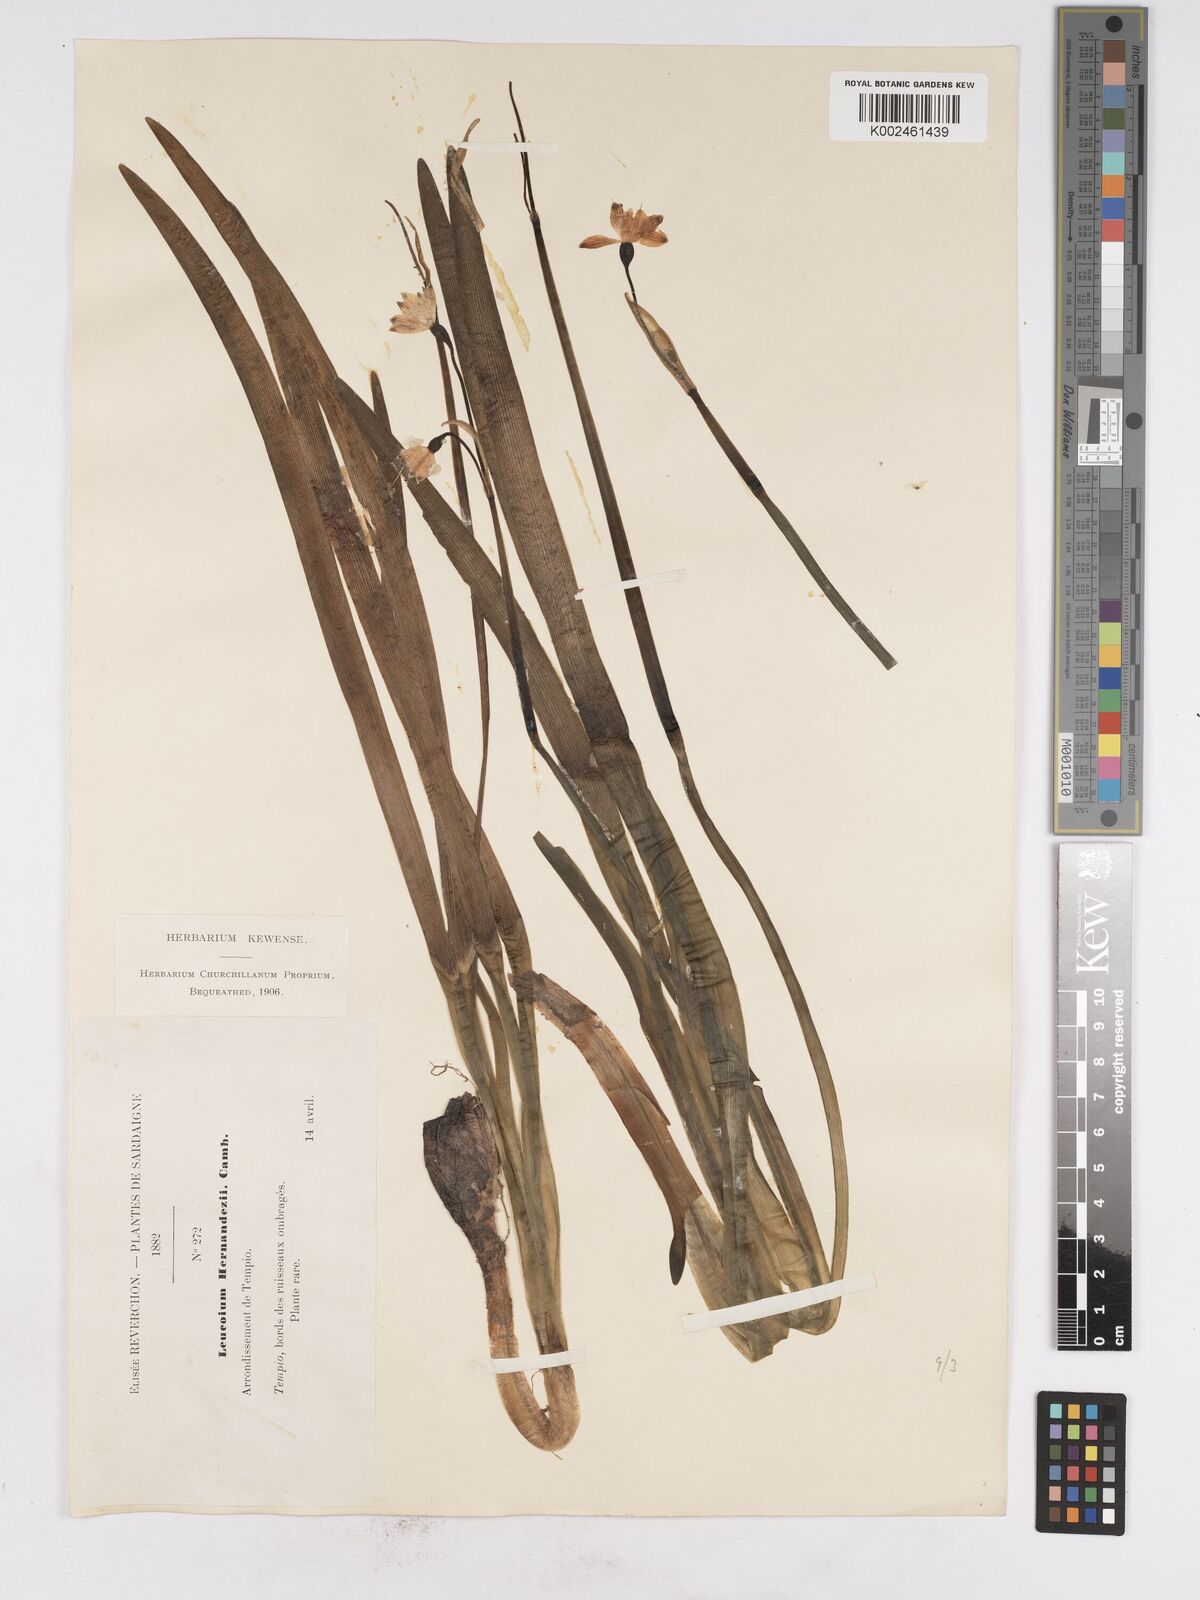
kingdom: Plantae
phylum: Tracheophyta
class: Liliopsida
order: Asparagales
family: Amaryllidaceae
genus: Leucojum
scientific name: Leucojum aestivum
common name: Summer snowflake
